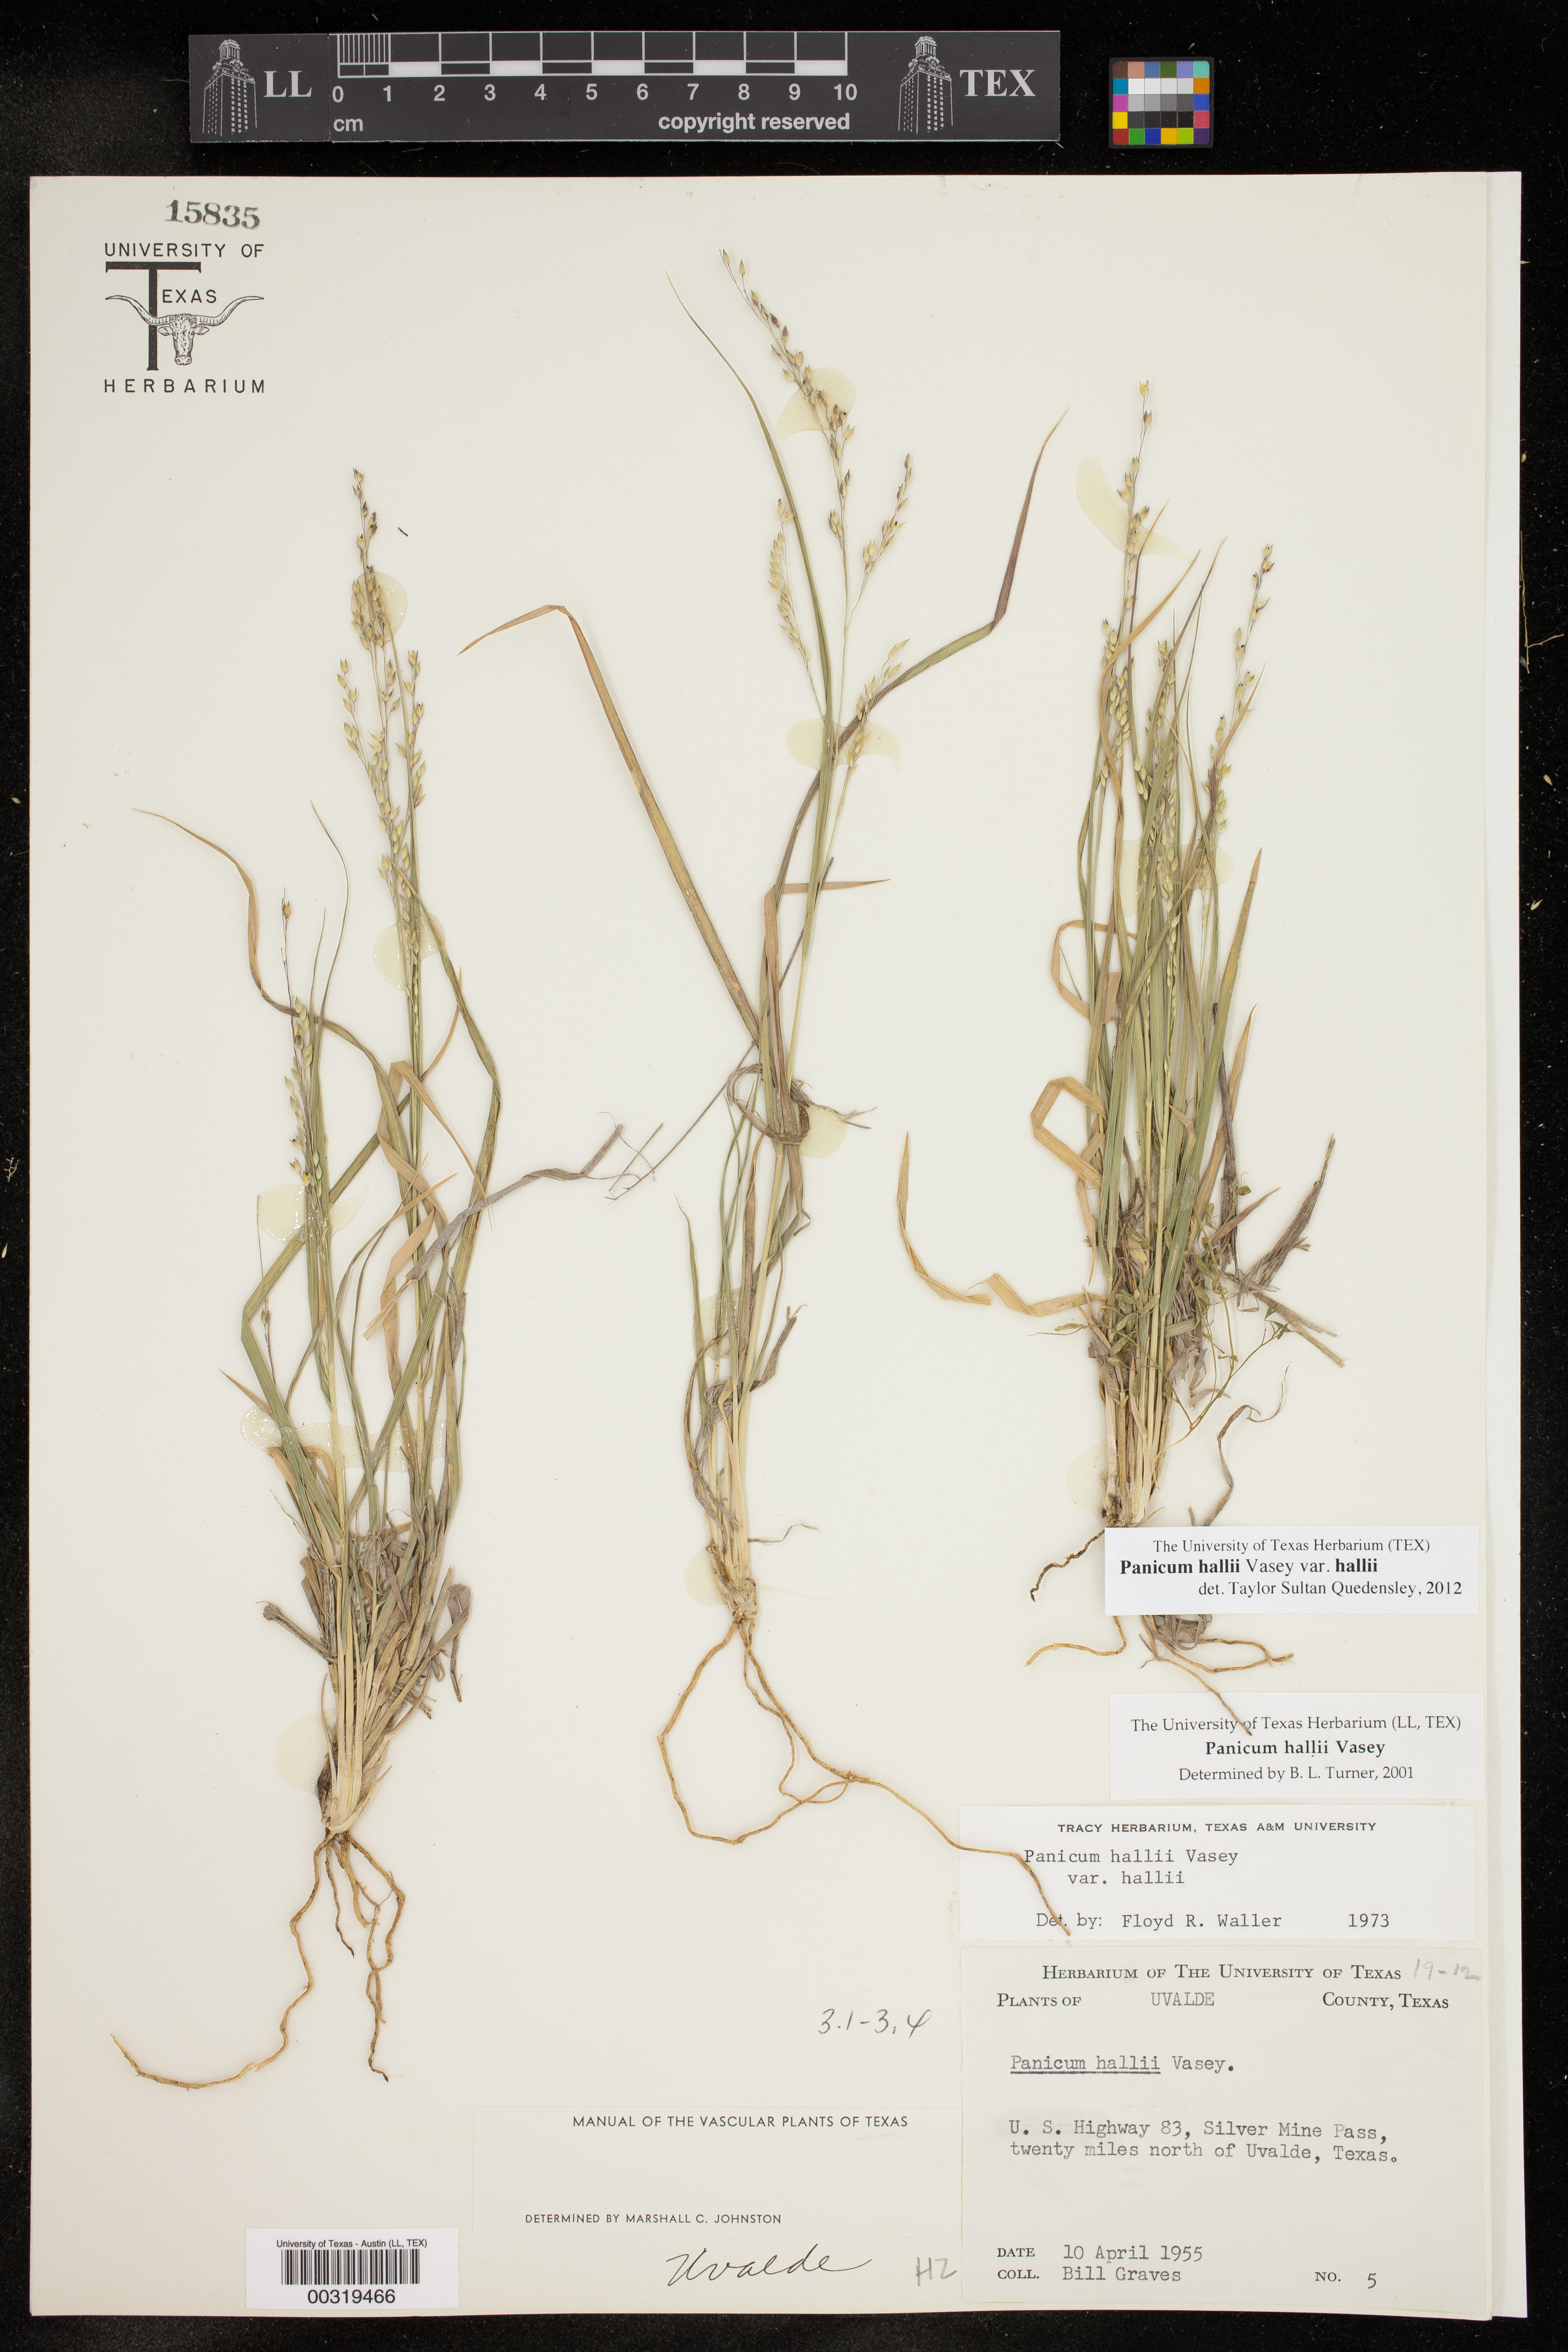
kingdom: Plantae
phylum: Tracheophyta
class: Liliopsida
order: Poales
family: Poaceae
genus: Panicum
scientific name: Panicum hallii
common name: Hall's witchgrass
